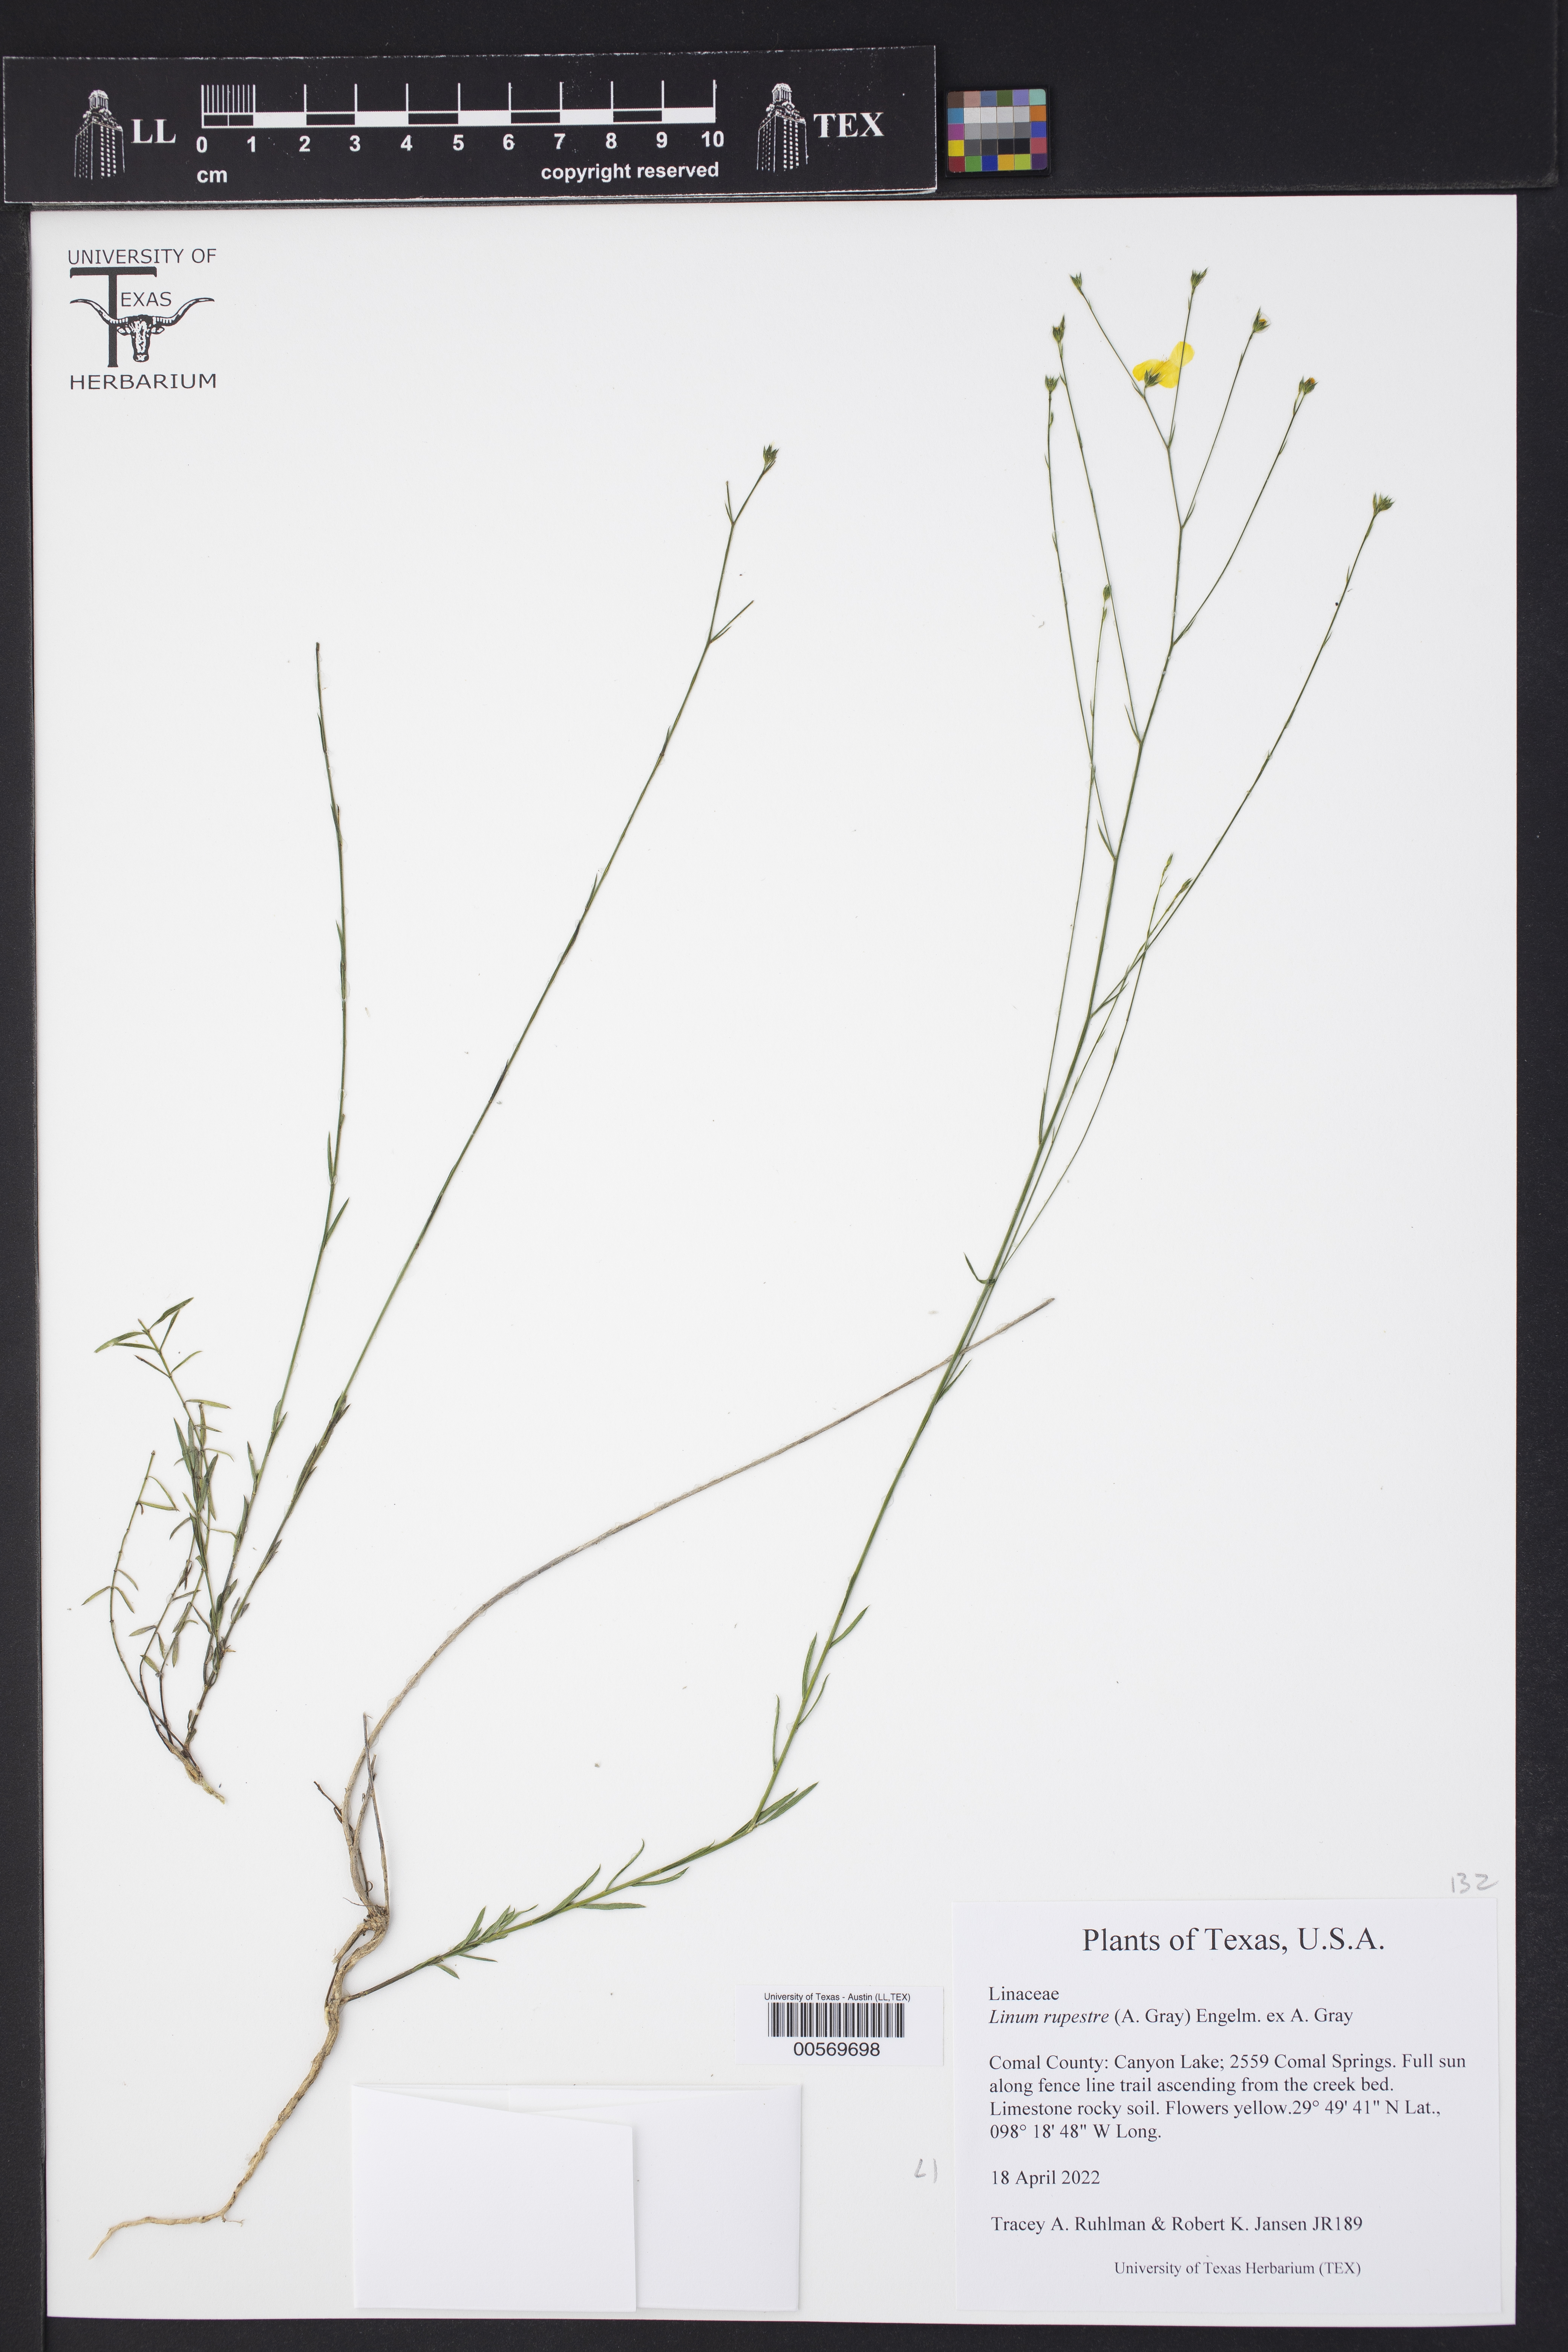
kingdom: Plantae
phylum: Tracheophyta
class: Magnoliopsida
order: Malpighiales
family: Linaceae
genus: Linum
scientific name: Linum rupestre
